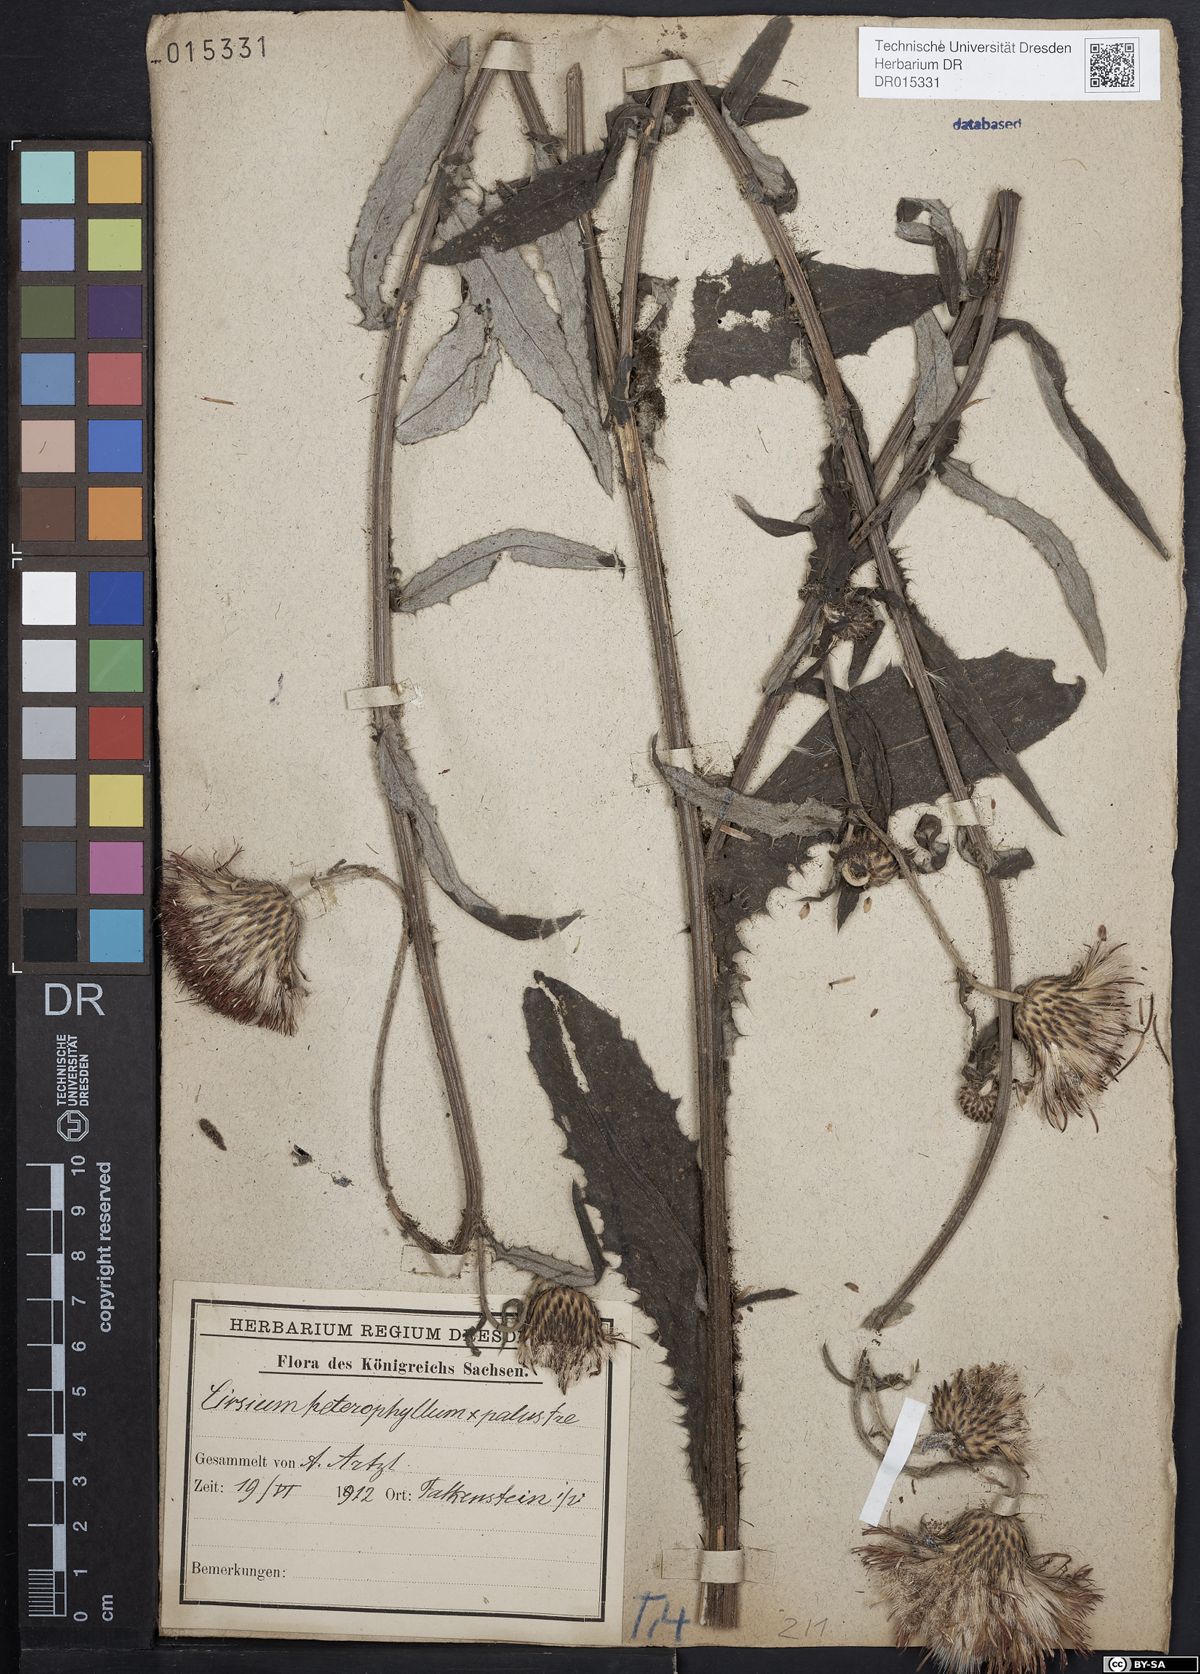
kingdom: Plantae
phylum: Tracheophyta
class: Magnoliopsida
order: Asterales
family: Asteraceae
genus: Cirsium
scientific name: Cirsium wankelii
